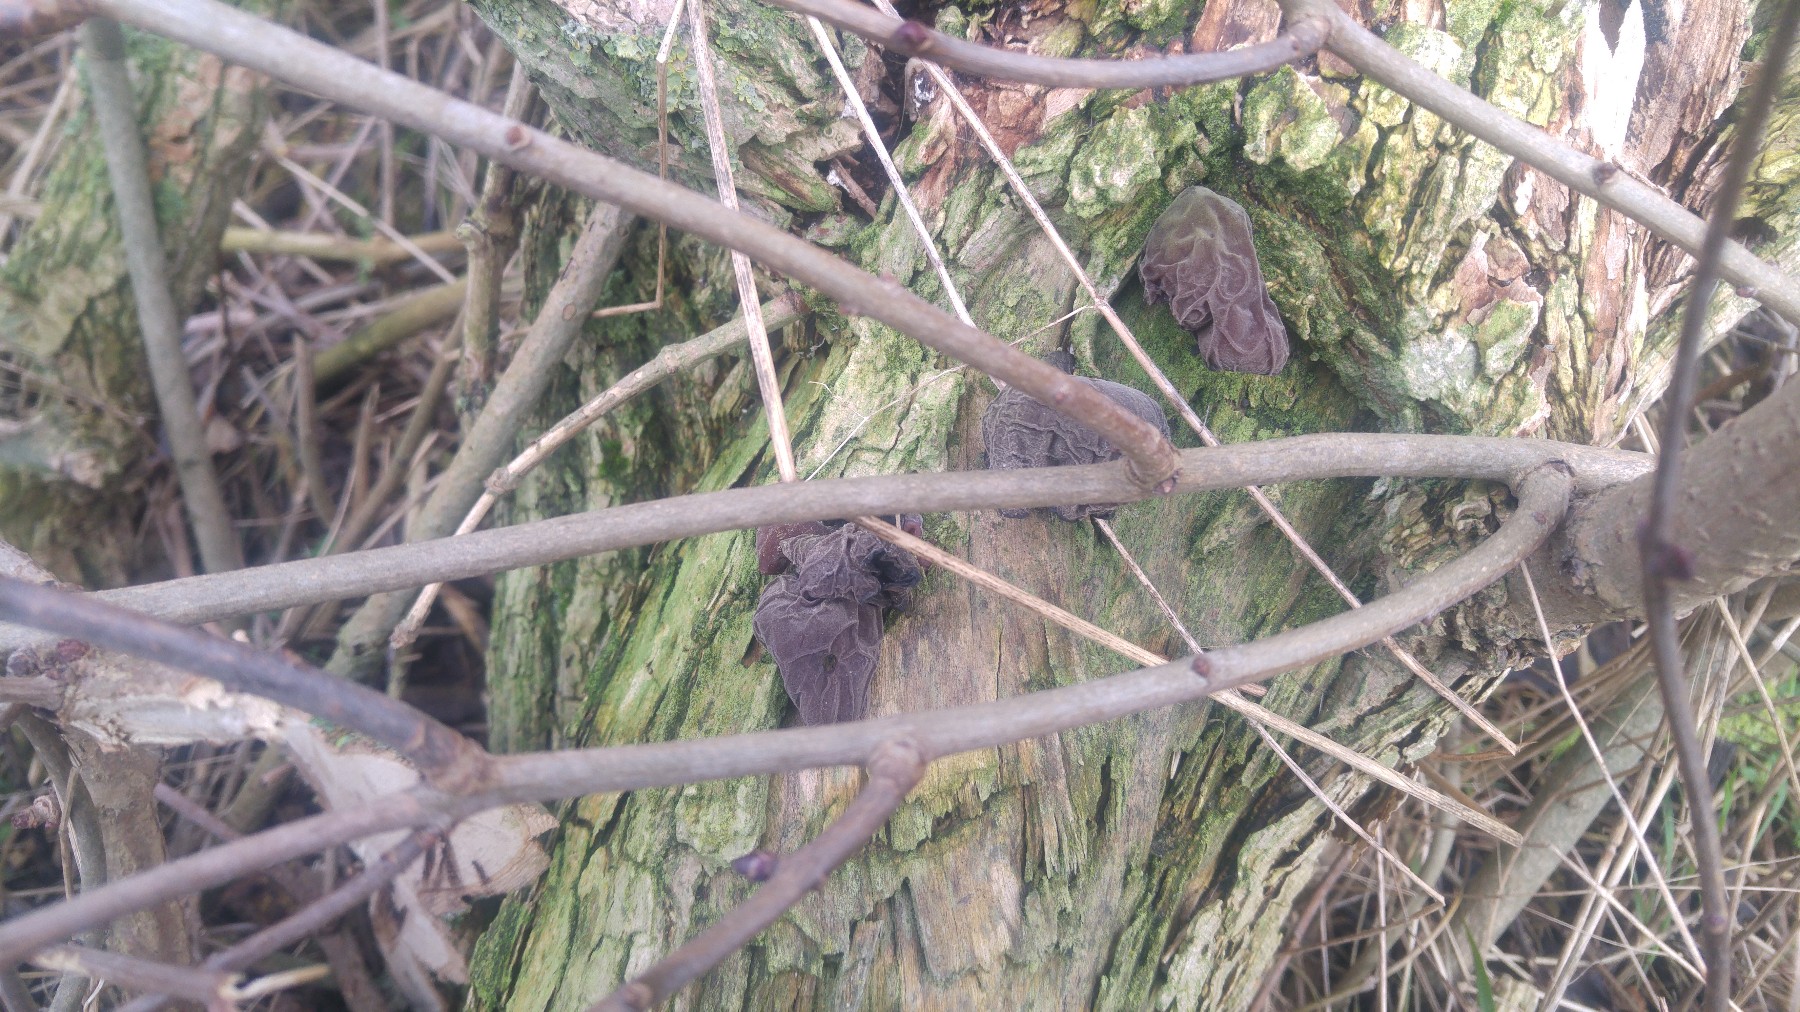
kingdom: Fungi
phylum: Basidiomycota
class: Agaricomycetes
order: Auriculariales
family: Auriculariaceae
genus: Auricularia
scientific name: Auricularia auricula-judae
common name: almindelig judasøre
